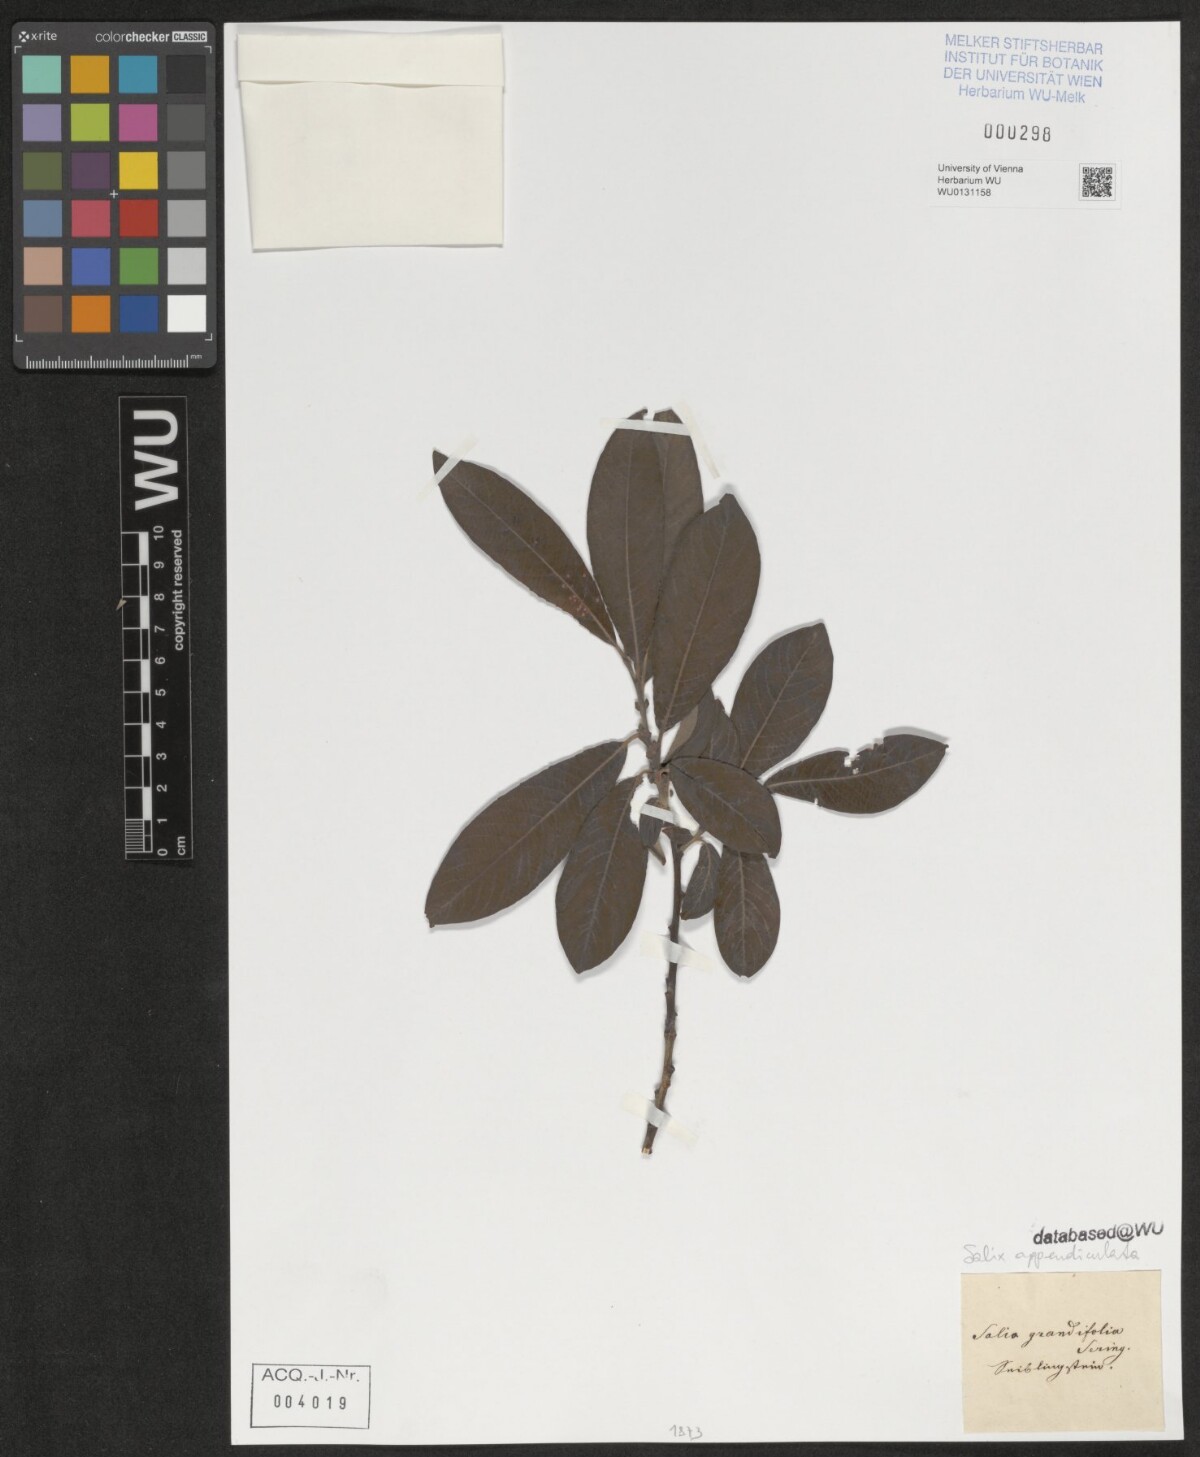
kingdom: Plantae
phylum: Tracheophyta
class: Magnoliopsida
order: Malpighiales
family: Salicaceae
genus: Salix
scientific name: Salix appendiculata
